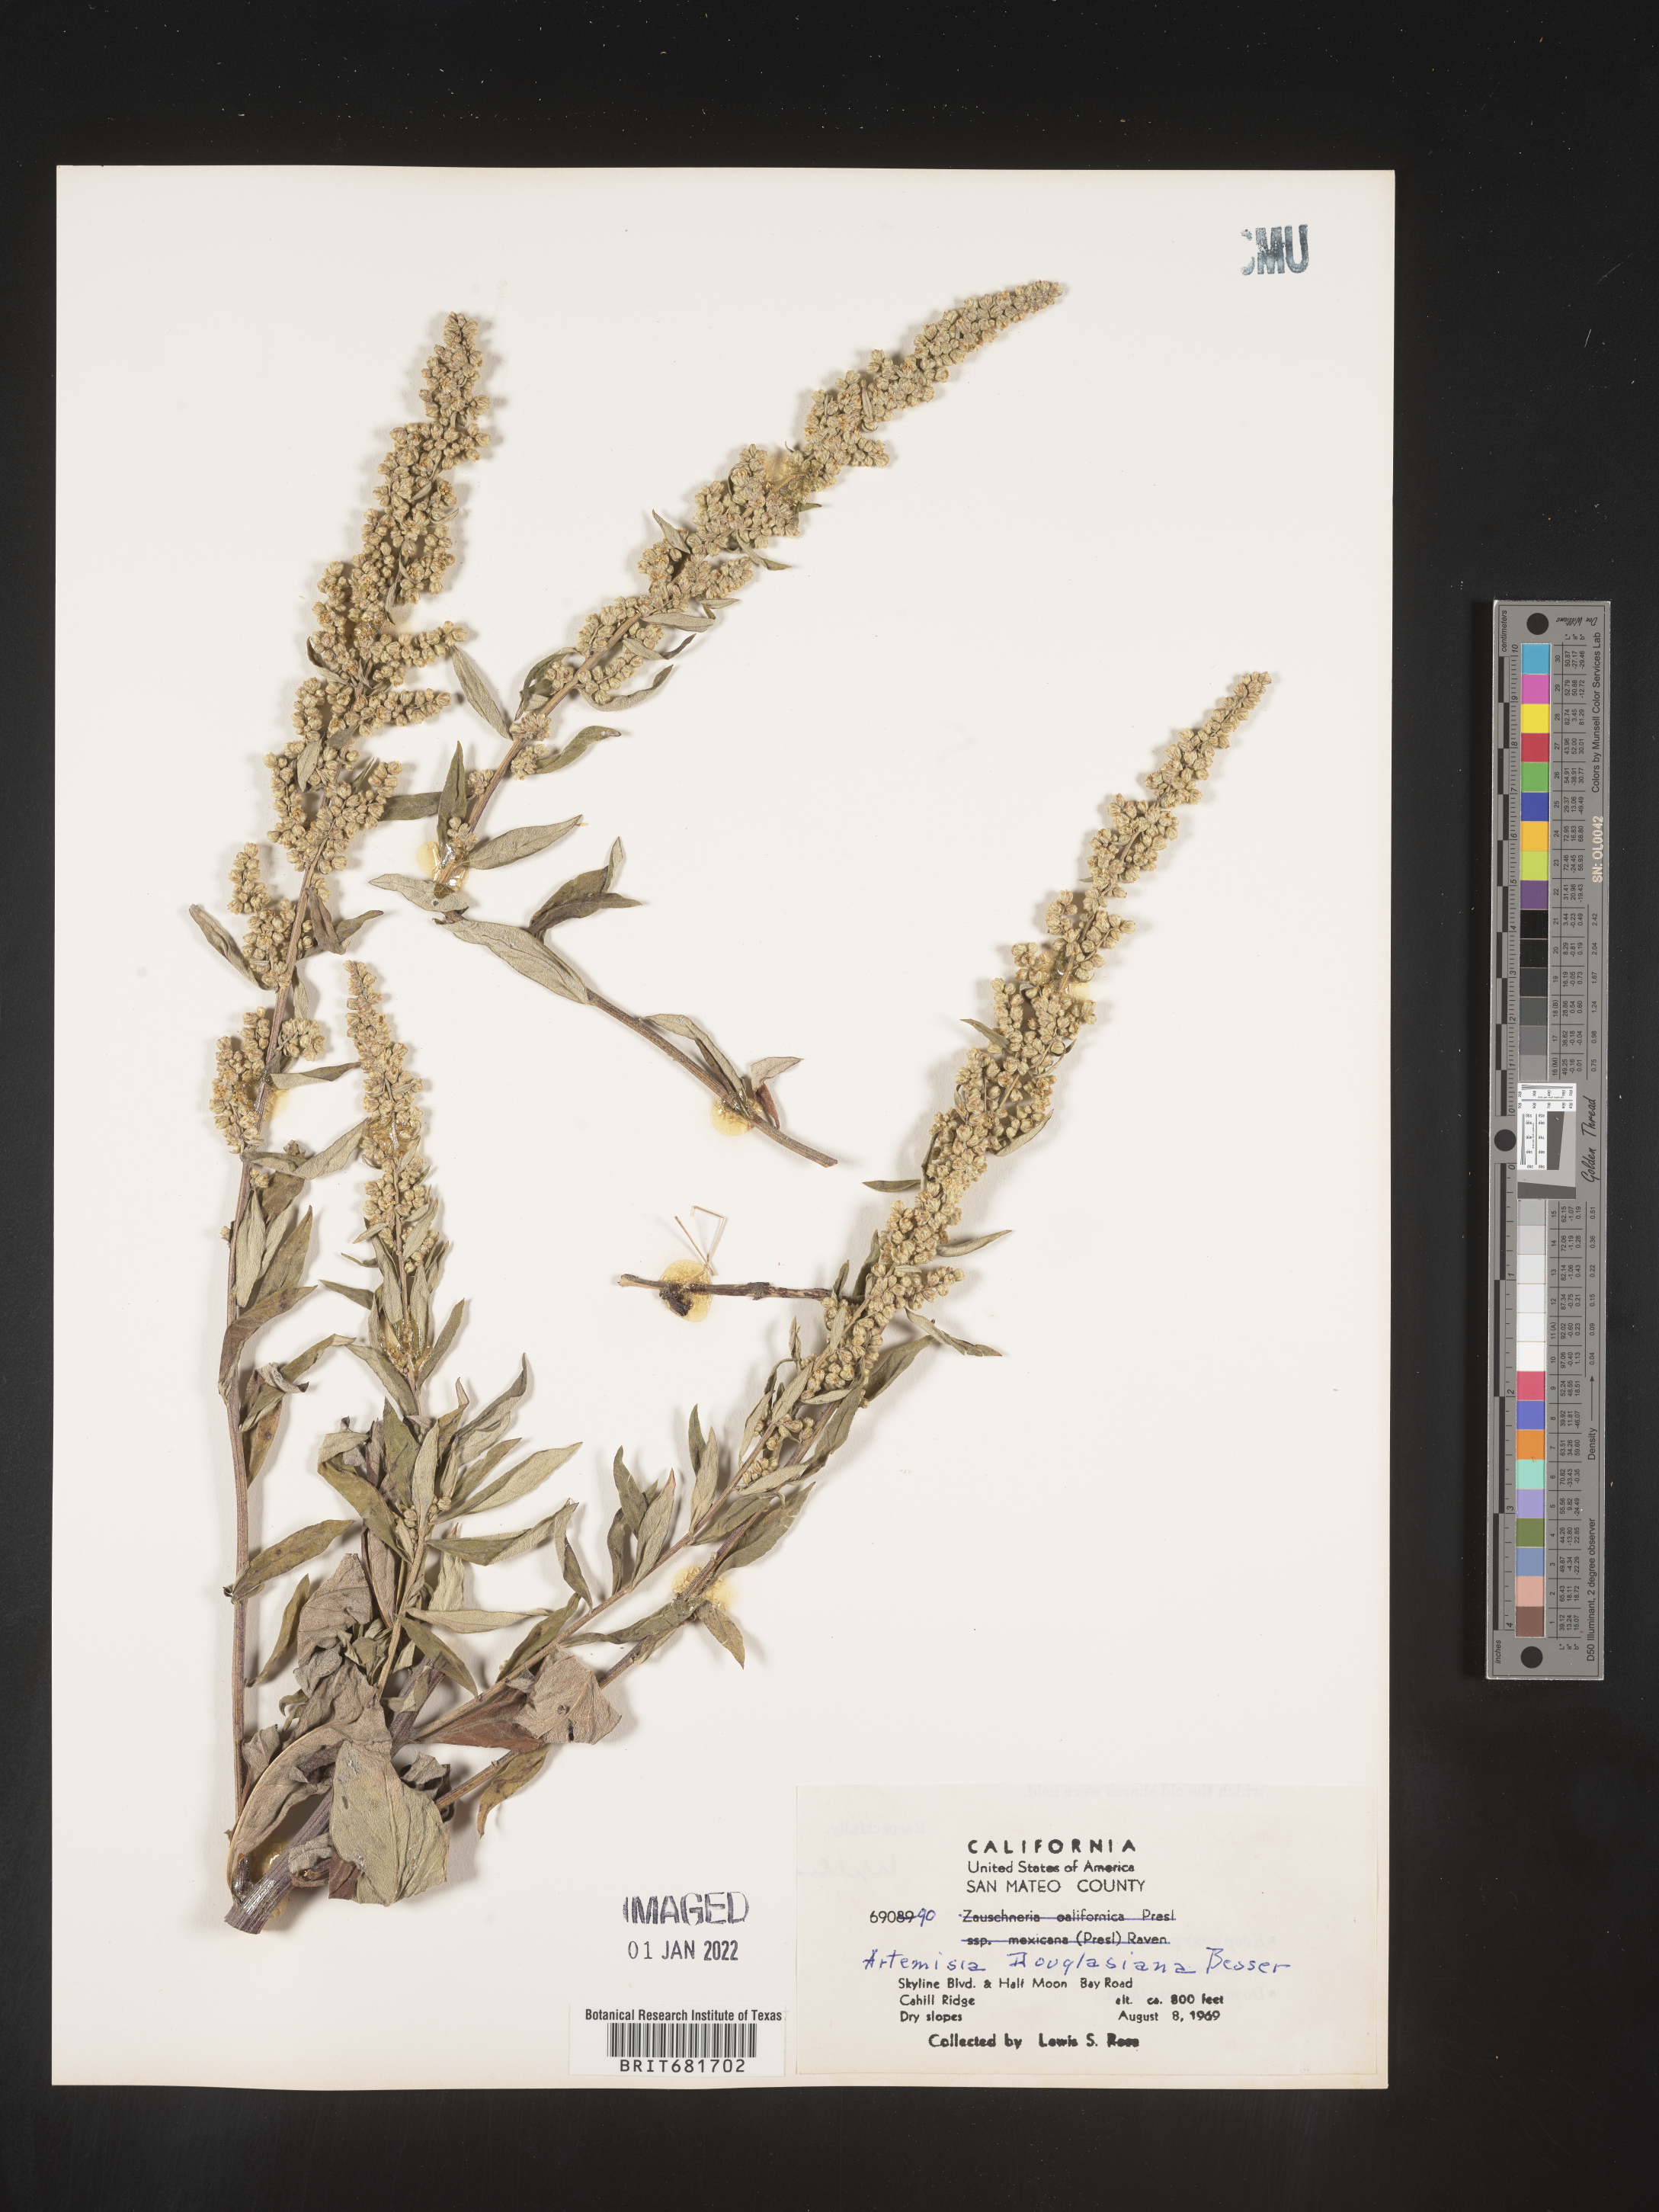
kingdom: Plantae
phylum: Tracheophyta
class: Magnoliopsida
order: Asterales
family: Asteraceae
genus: Artemisia
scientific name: Artemisia douglasiana
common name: Northwest mugwort
